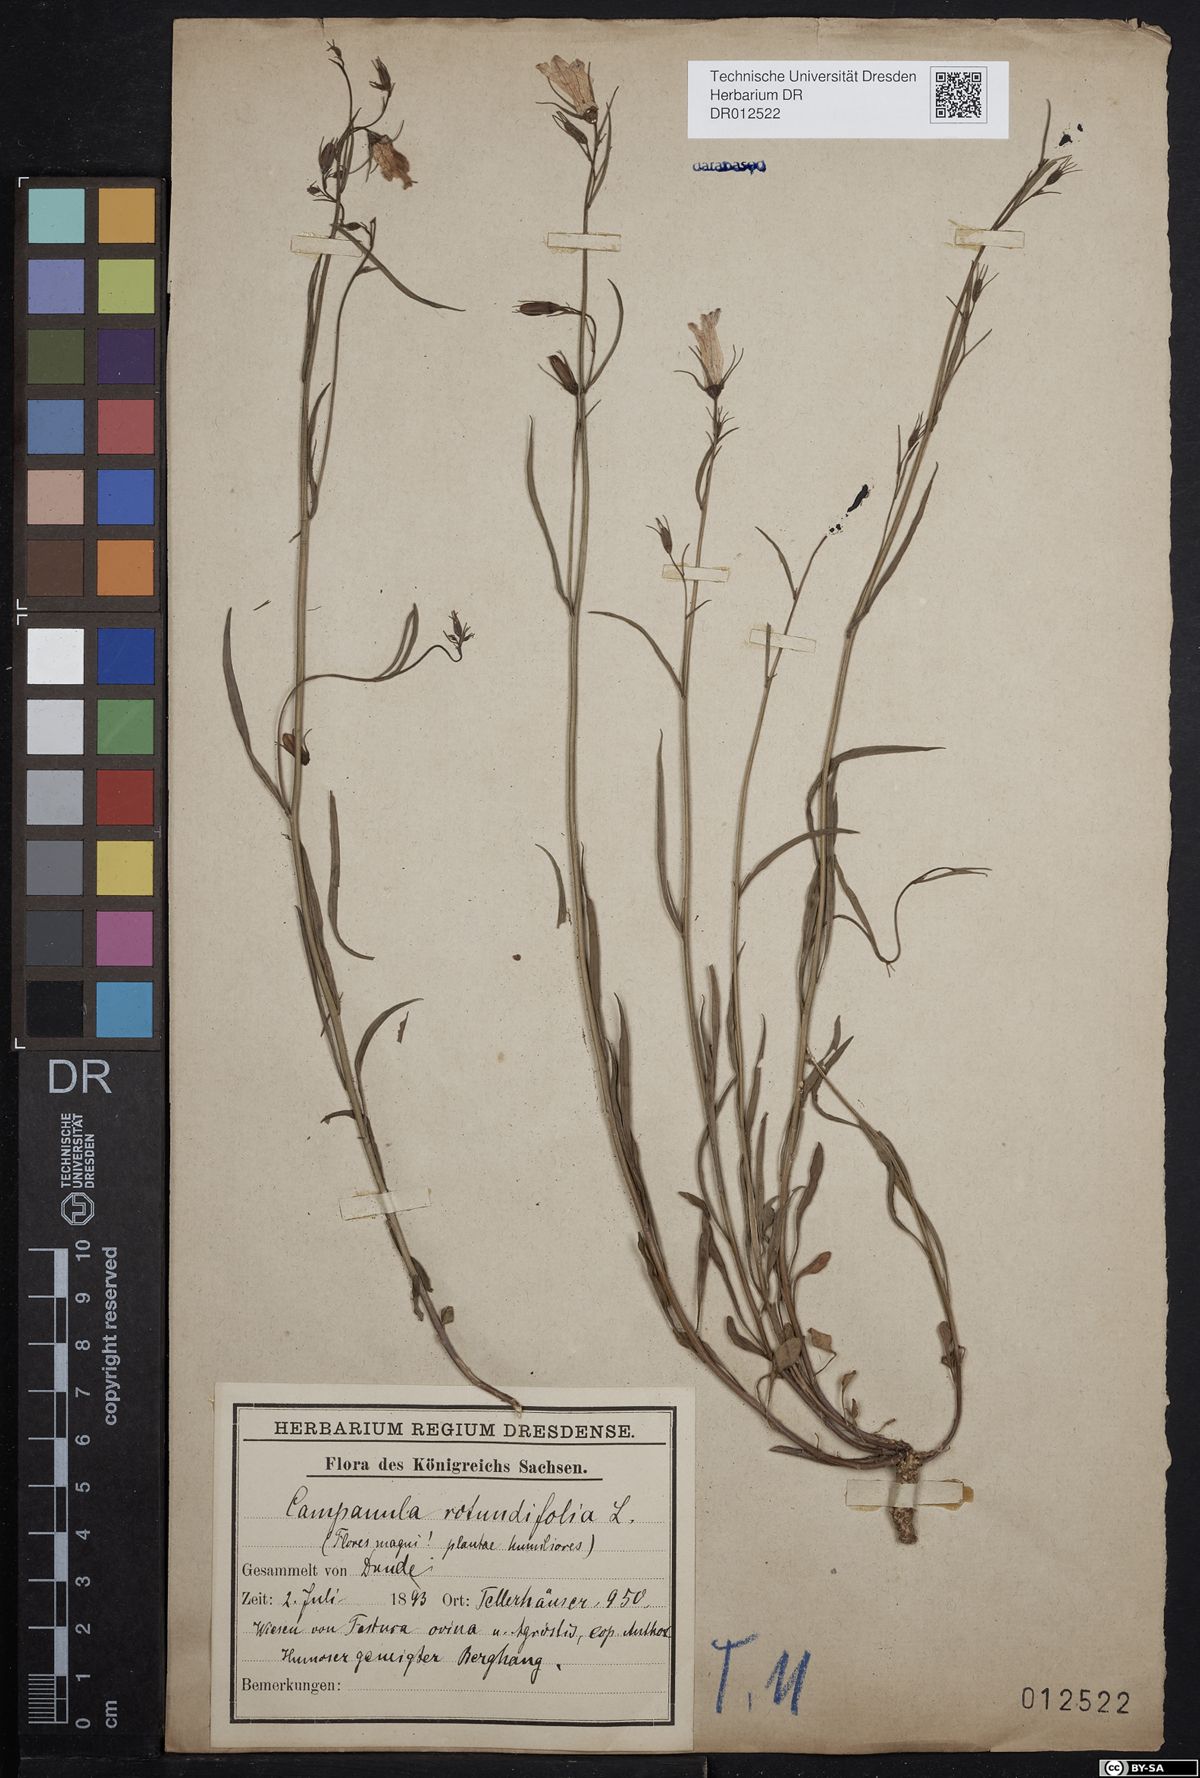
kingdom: Plantae
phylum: Tracheophyta
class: Magnoliopsida
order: Asterales
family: Campanulaceae
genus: Campanula
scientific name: Campanula rotundifolia
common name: Harebell
